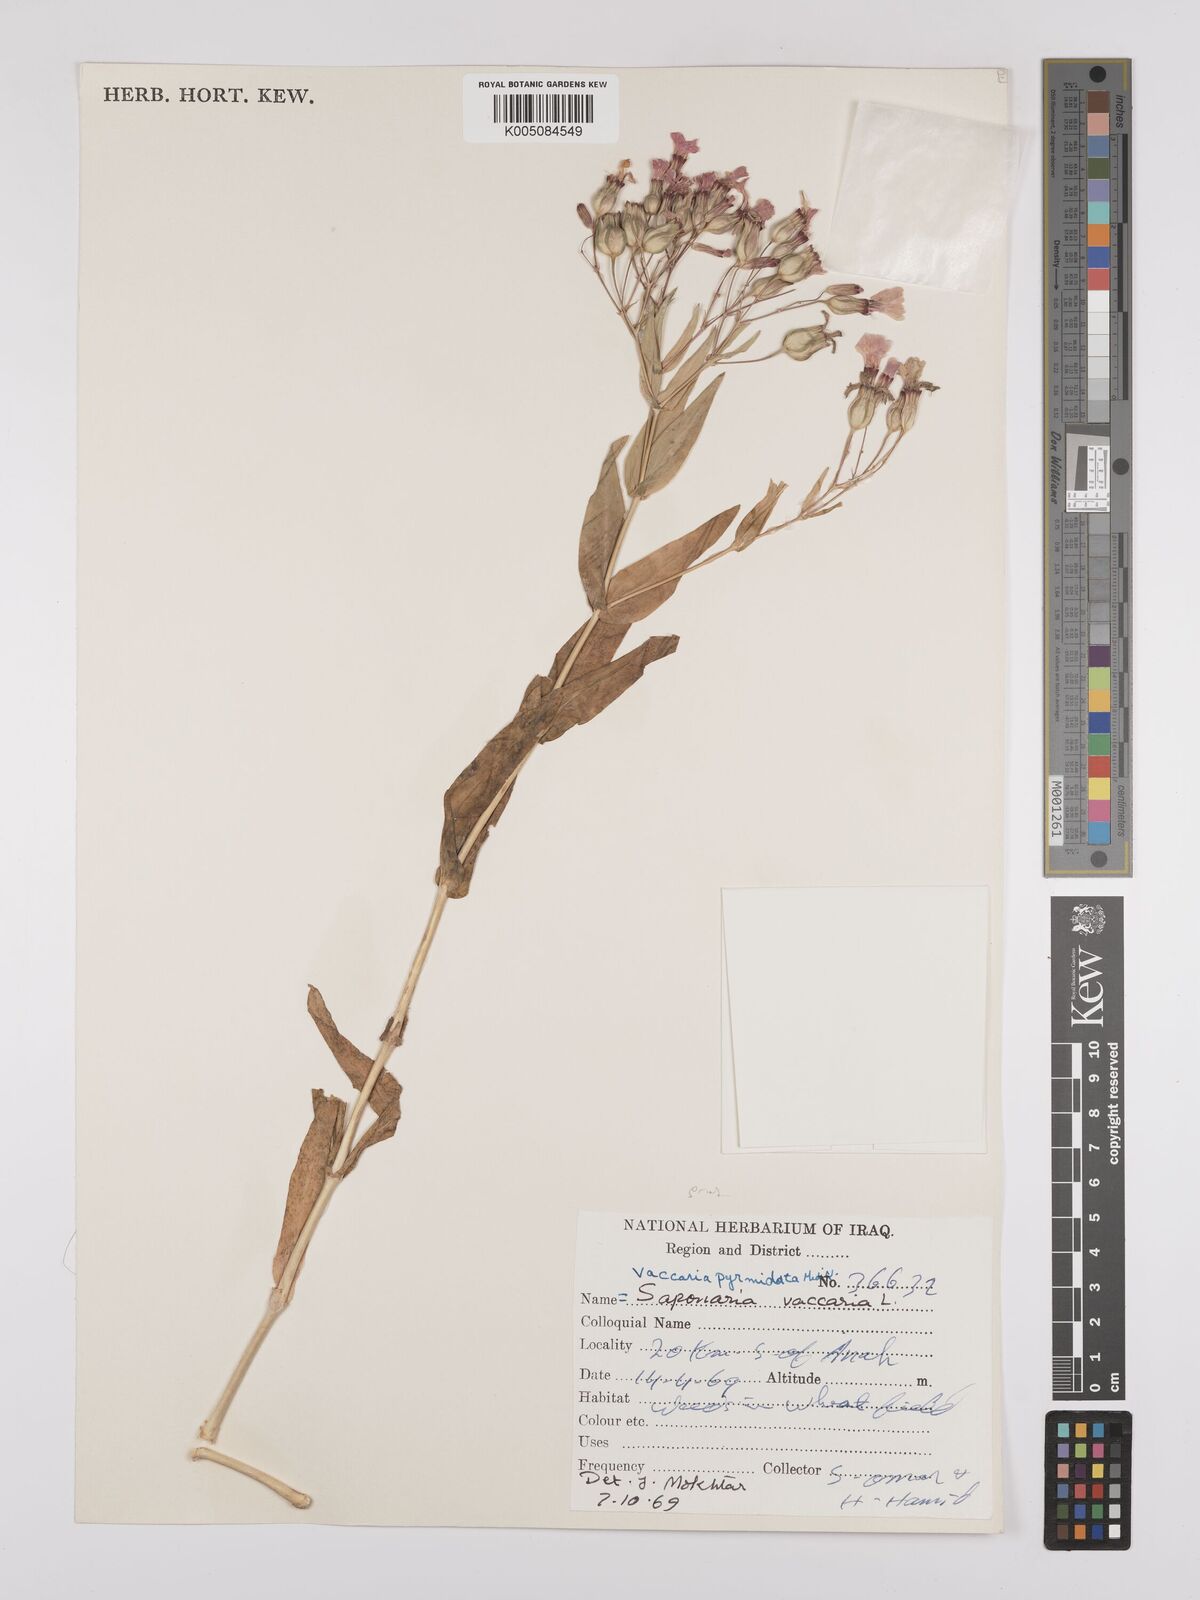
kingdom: Plantae
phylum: Tracheophyta
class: Magnoliopsida
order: Caryophyllales
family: Caryophyllaceae
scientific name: Caryophyllaceae
